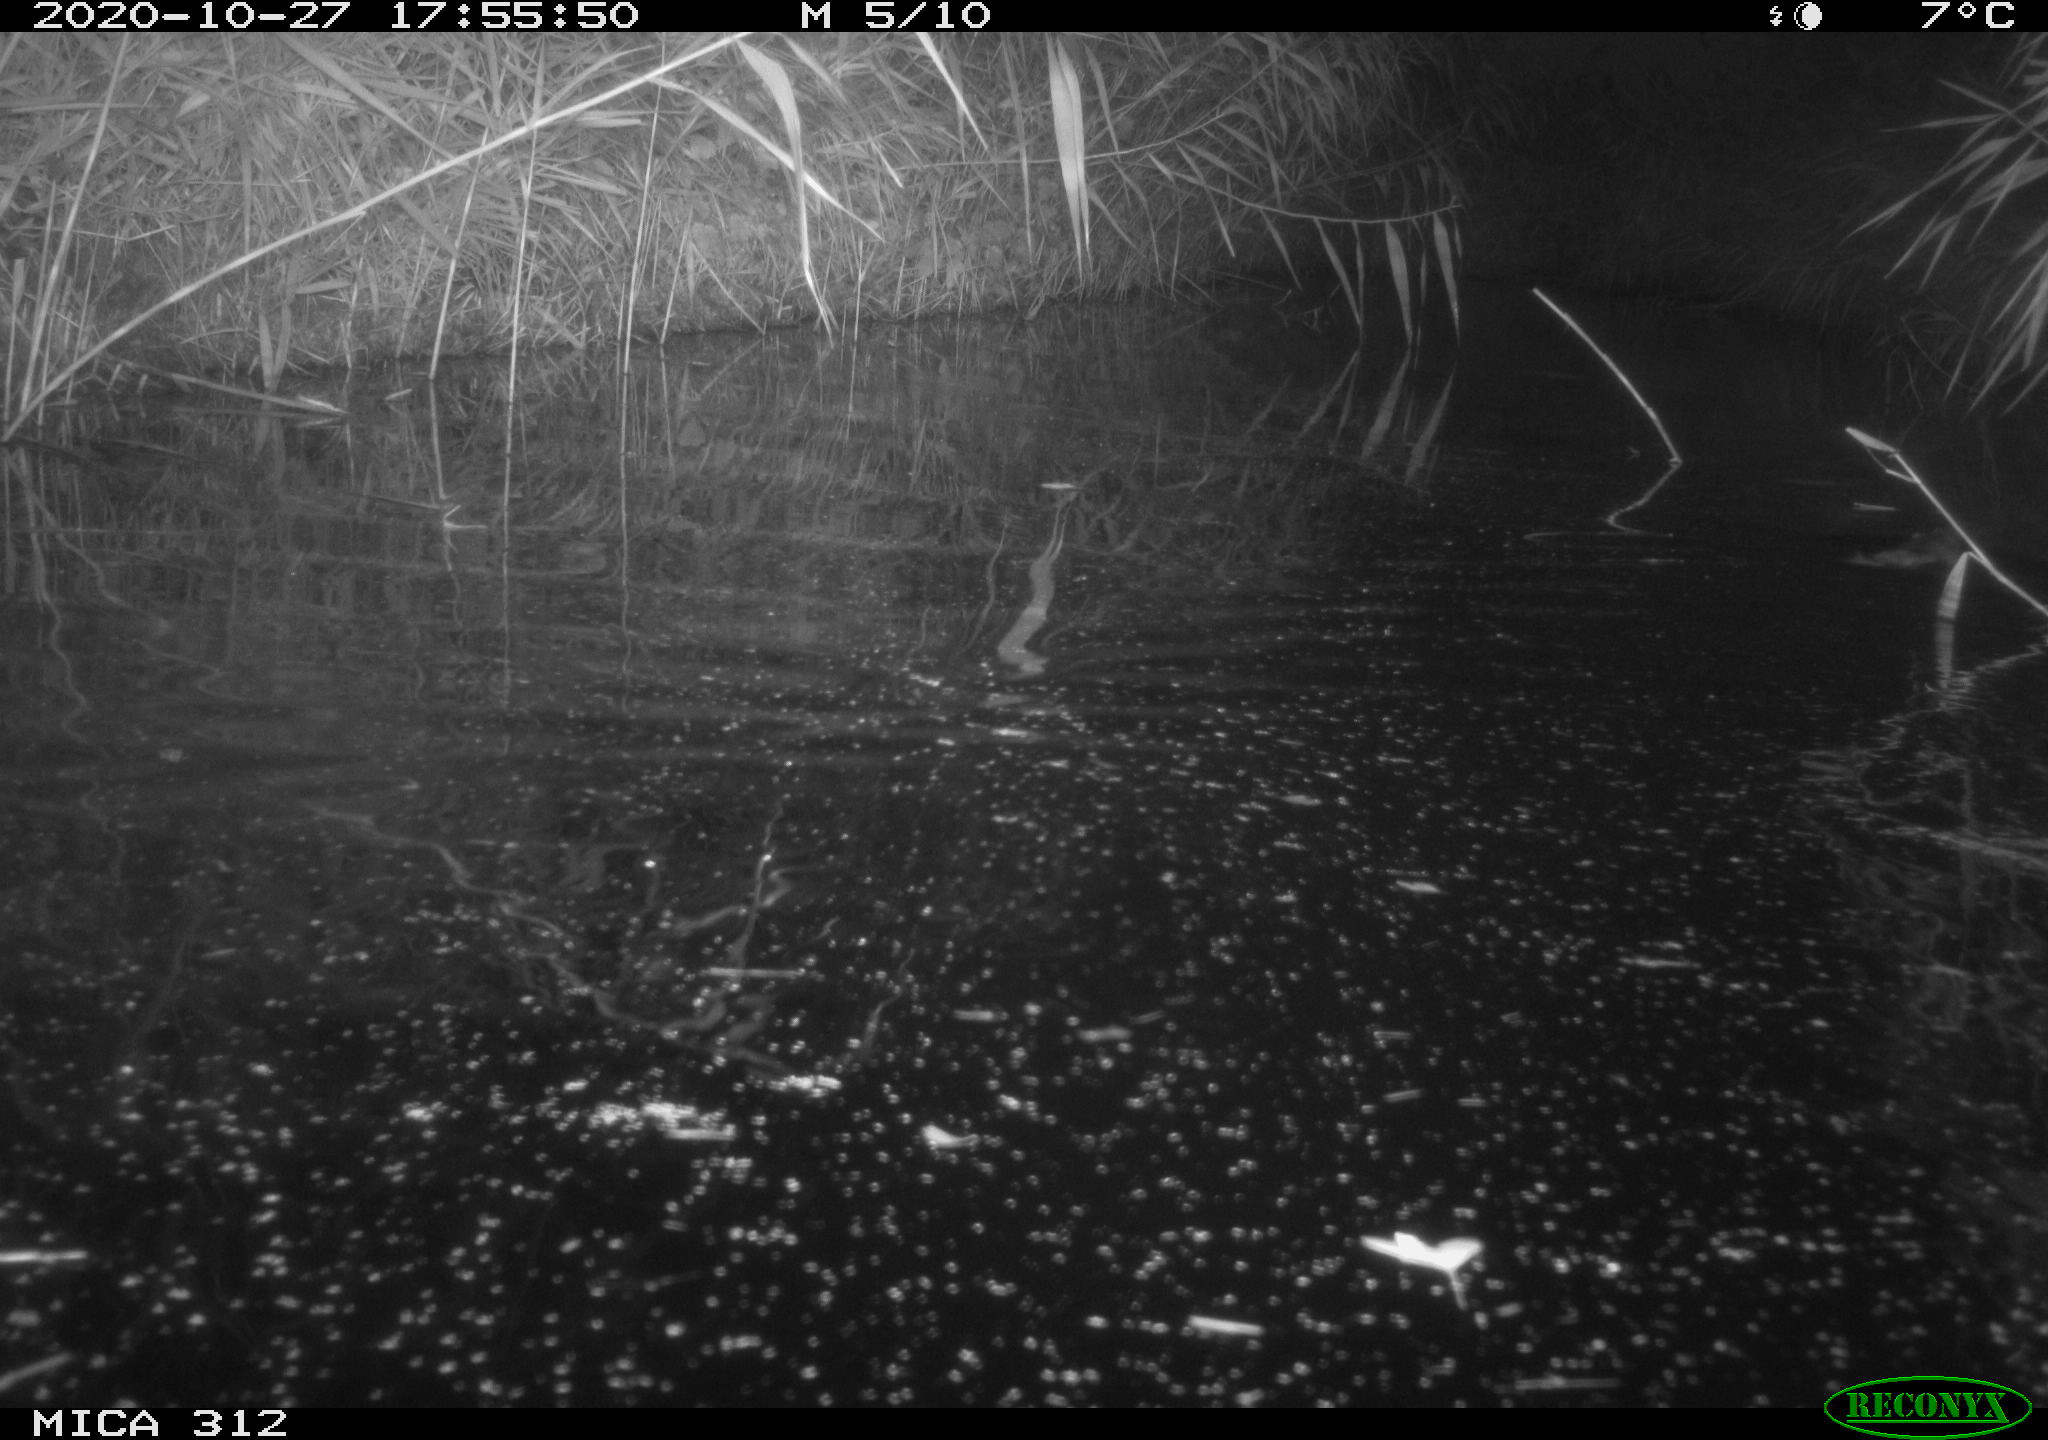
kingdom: Animalia
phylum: Chordata
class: Mammalia
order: Rodentia
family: Muridae
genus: Rattus
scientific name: Rattus norvegicus
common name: Brown rat
